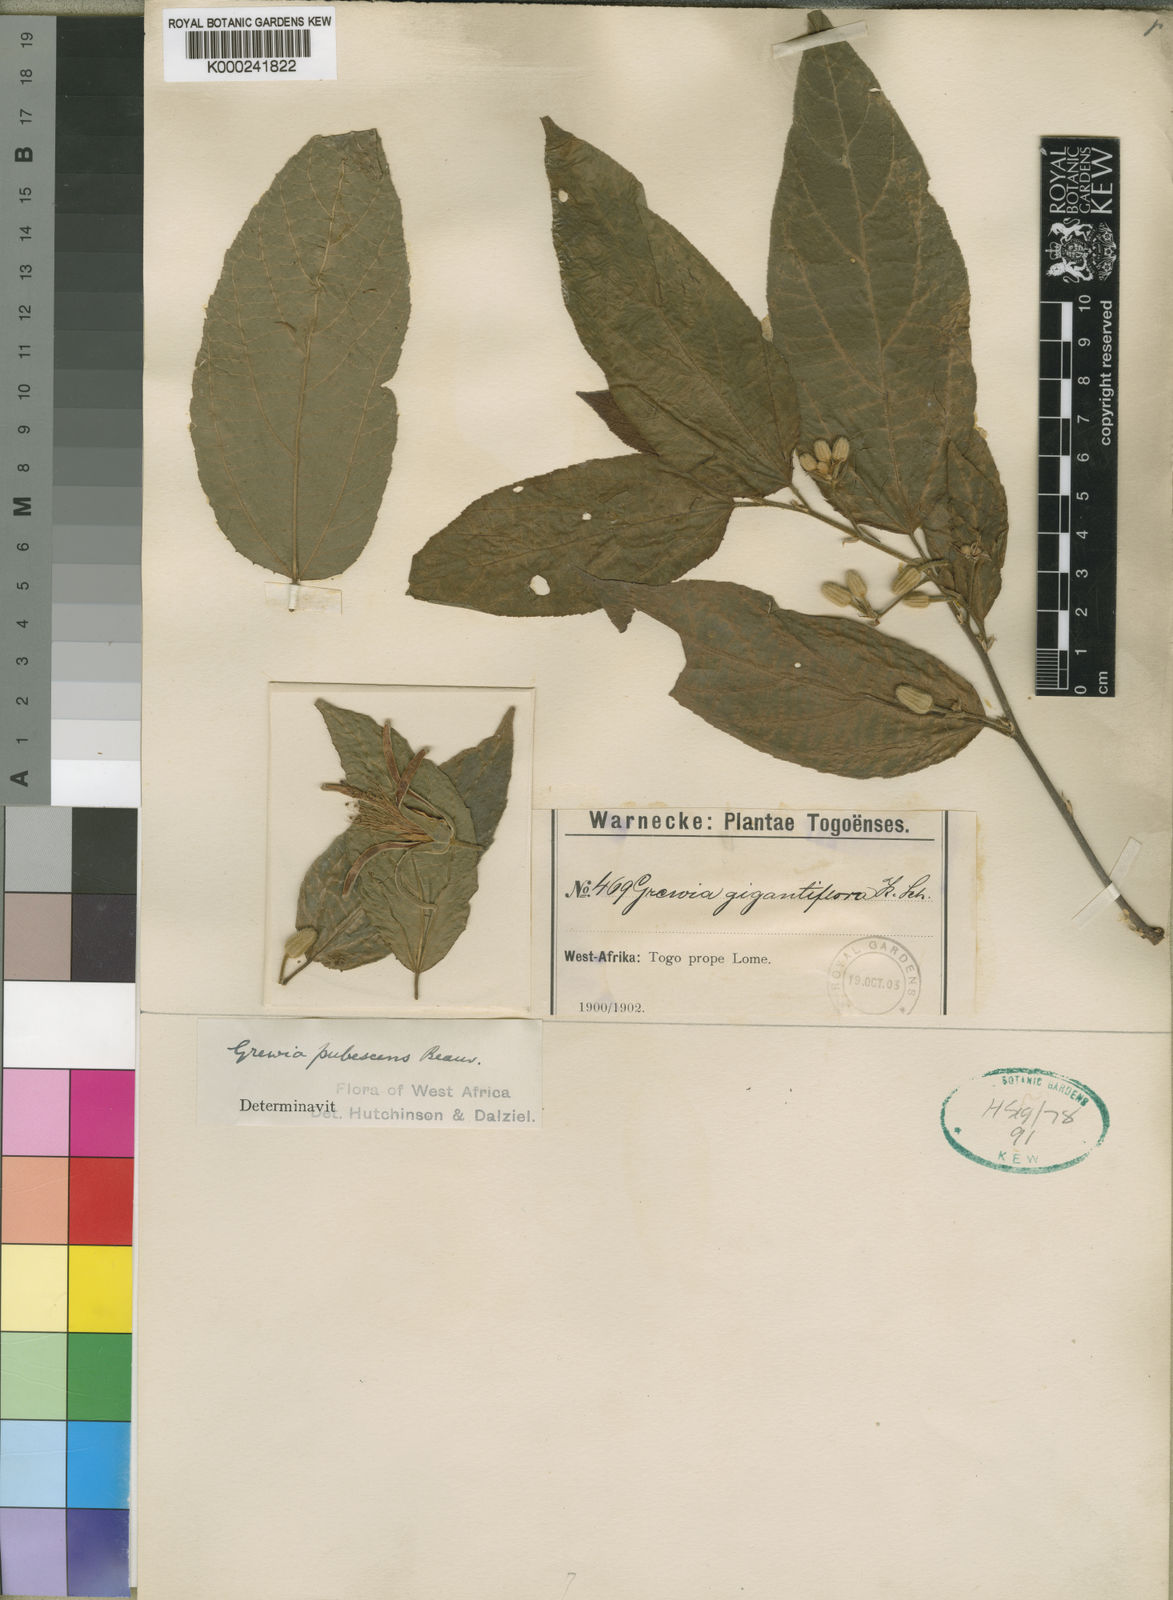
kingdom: Plantae
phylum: Tracheophyta
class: Magnoliopsida
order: Malvales
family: Malvaceae
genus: Grewia
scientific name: Grewia pubescens
